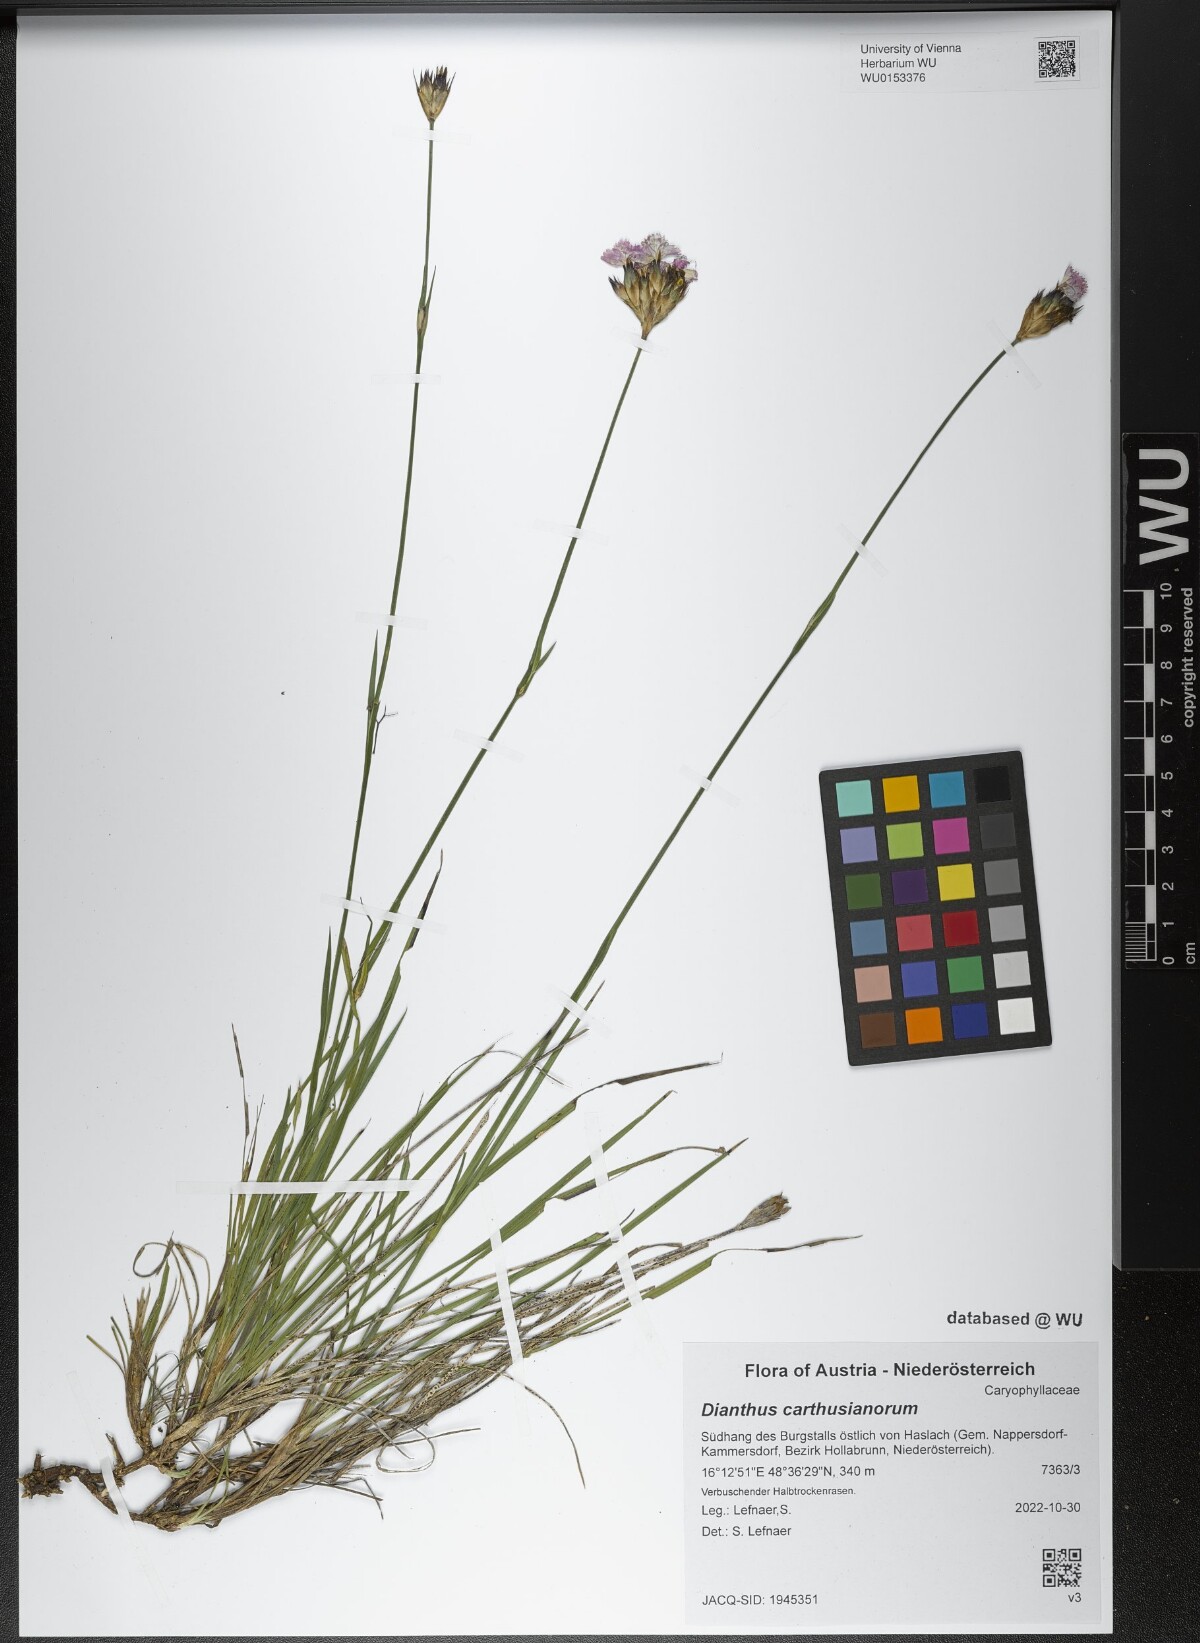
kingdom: Plantae
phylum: Tracheophyta
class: Magnoliopsida
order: Caryophyllales
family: Caryophyllaceae
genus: Dianthus
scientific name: Dianthus carthusianorum
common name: Carthusian pink
